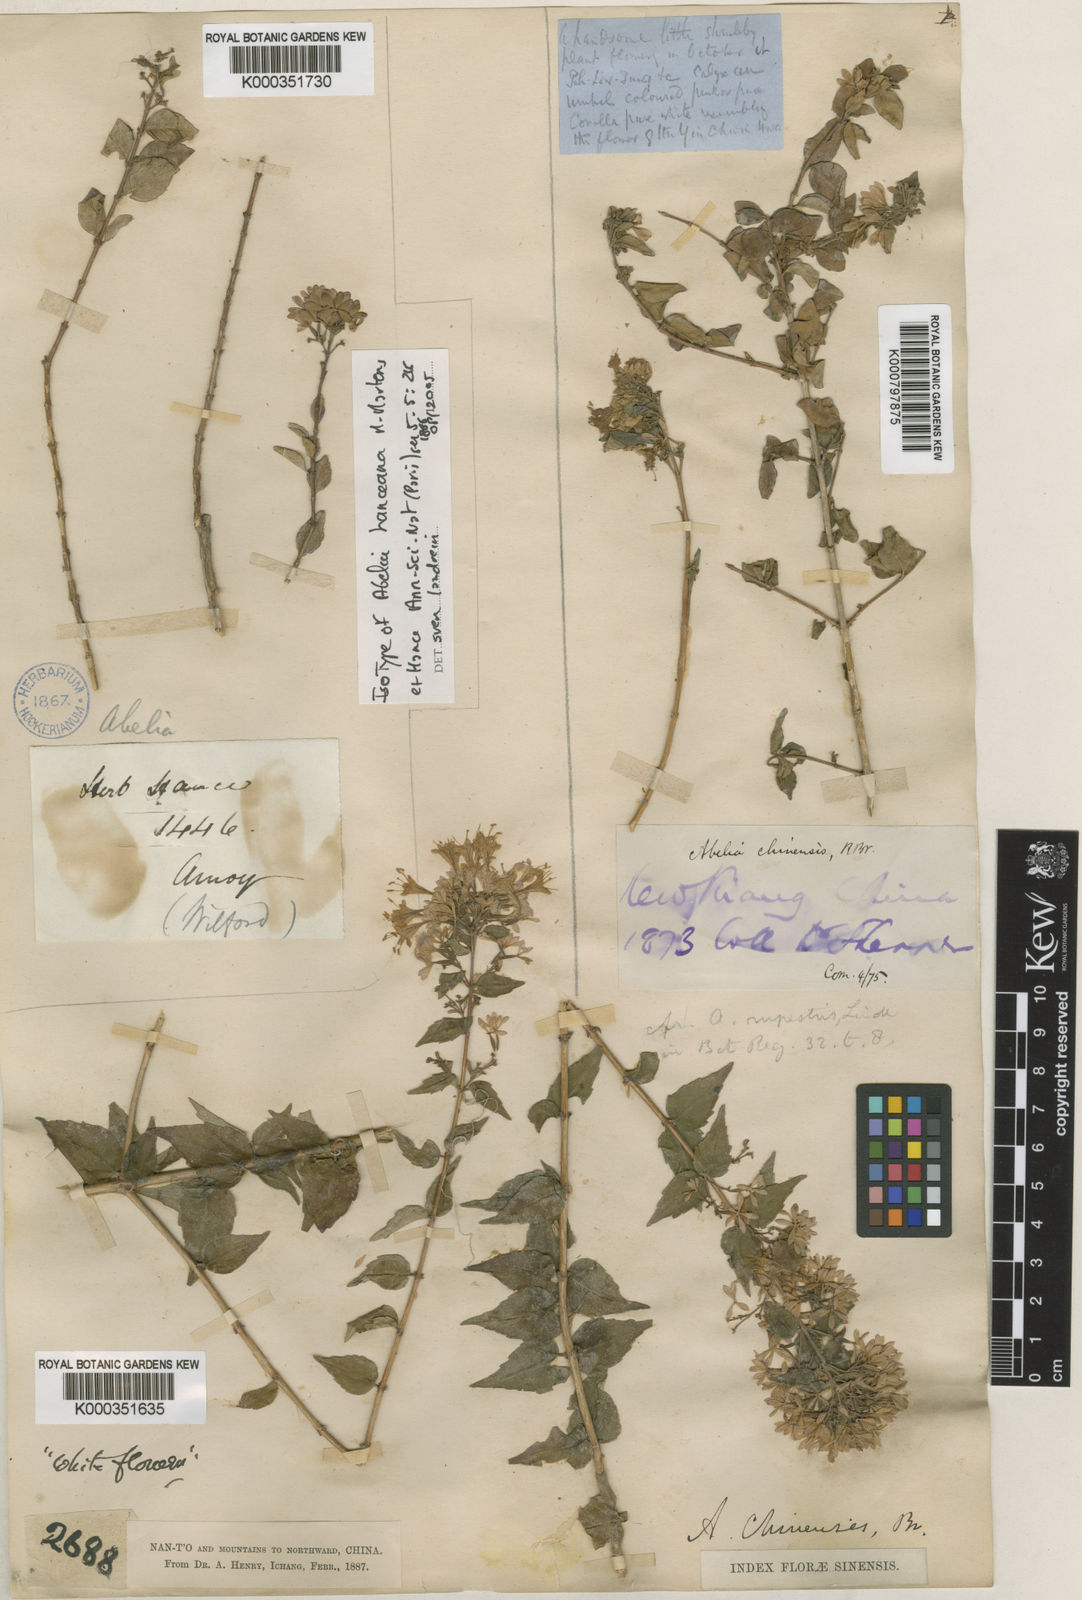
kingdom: Plantae
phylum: Tracheophyta
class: Magnoliopsida
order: Dipsacales
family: Caprifoliaceae
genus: Abelia
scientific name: Abelia chinensis
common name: Chinese abelia
